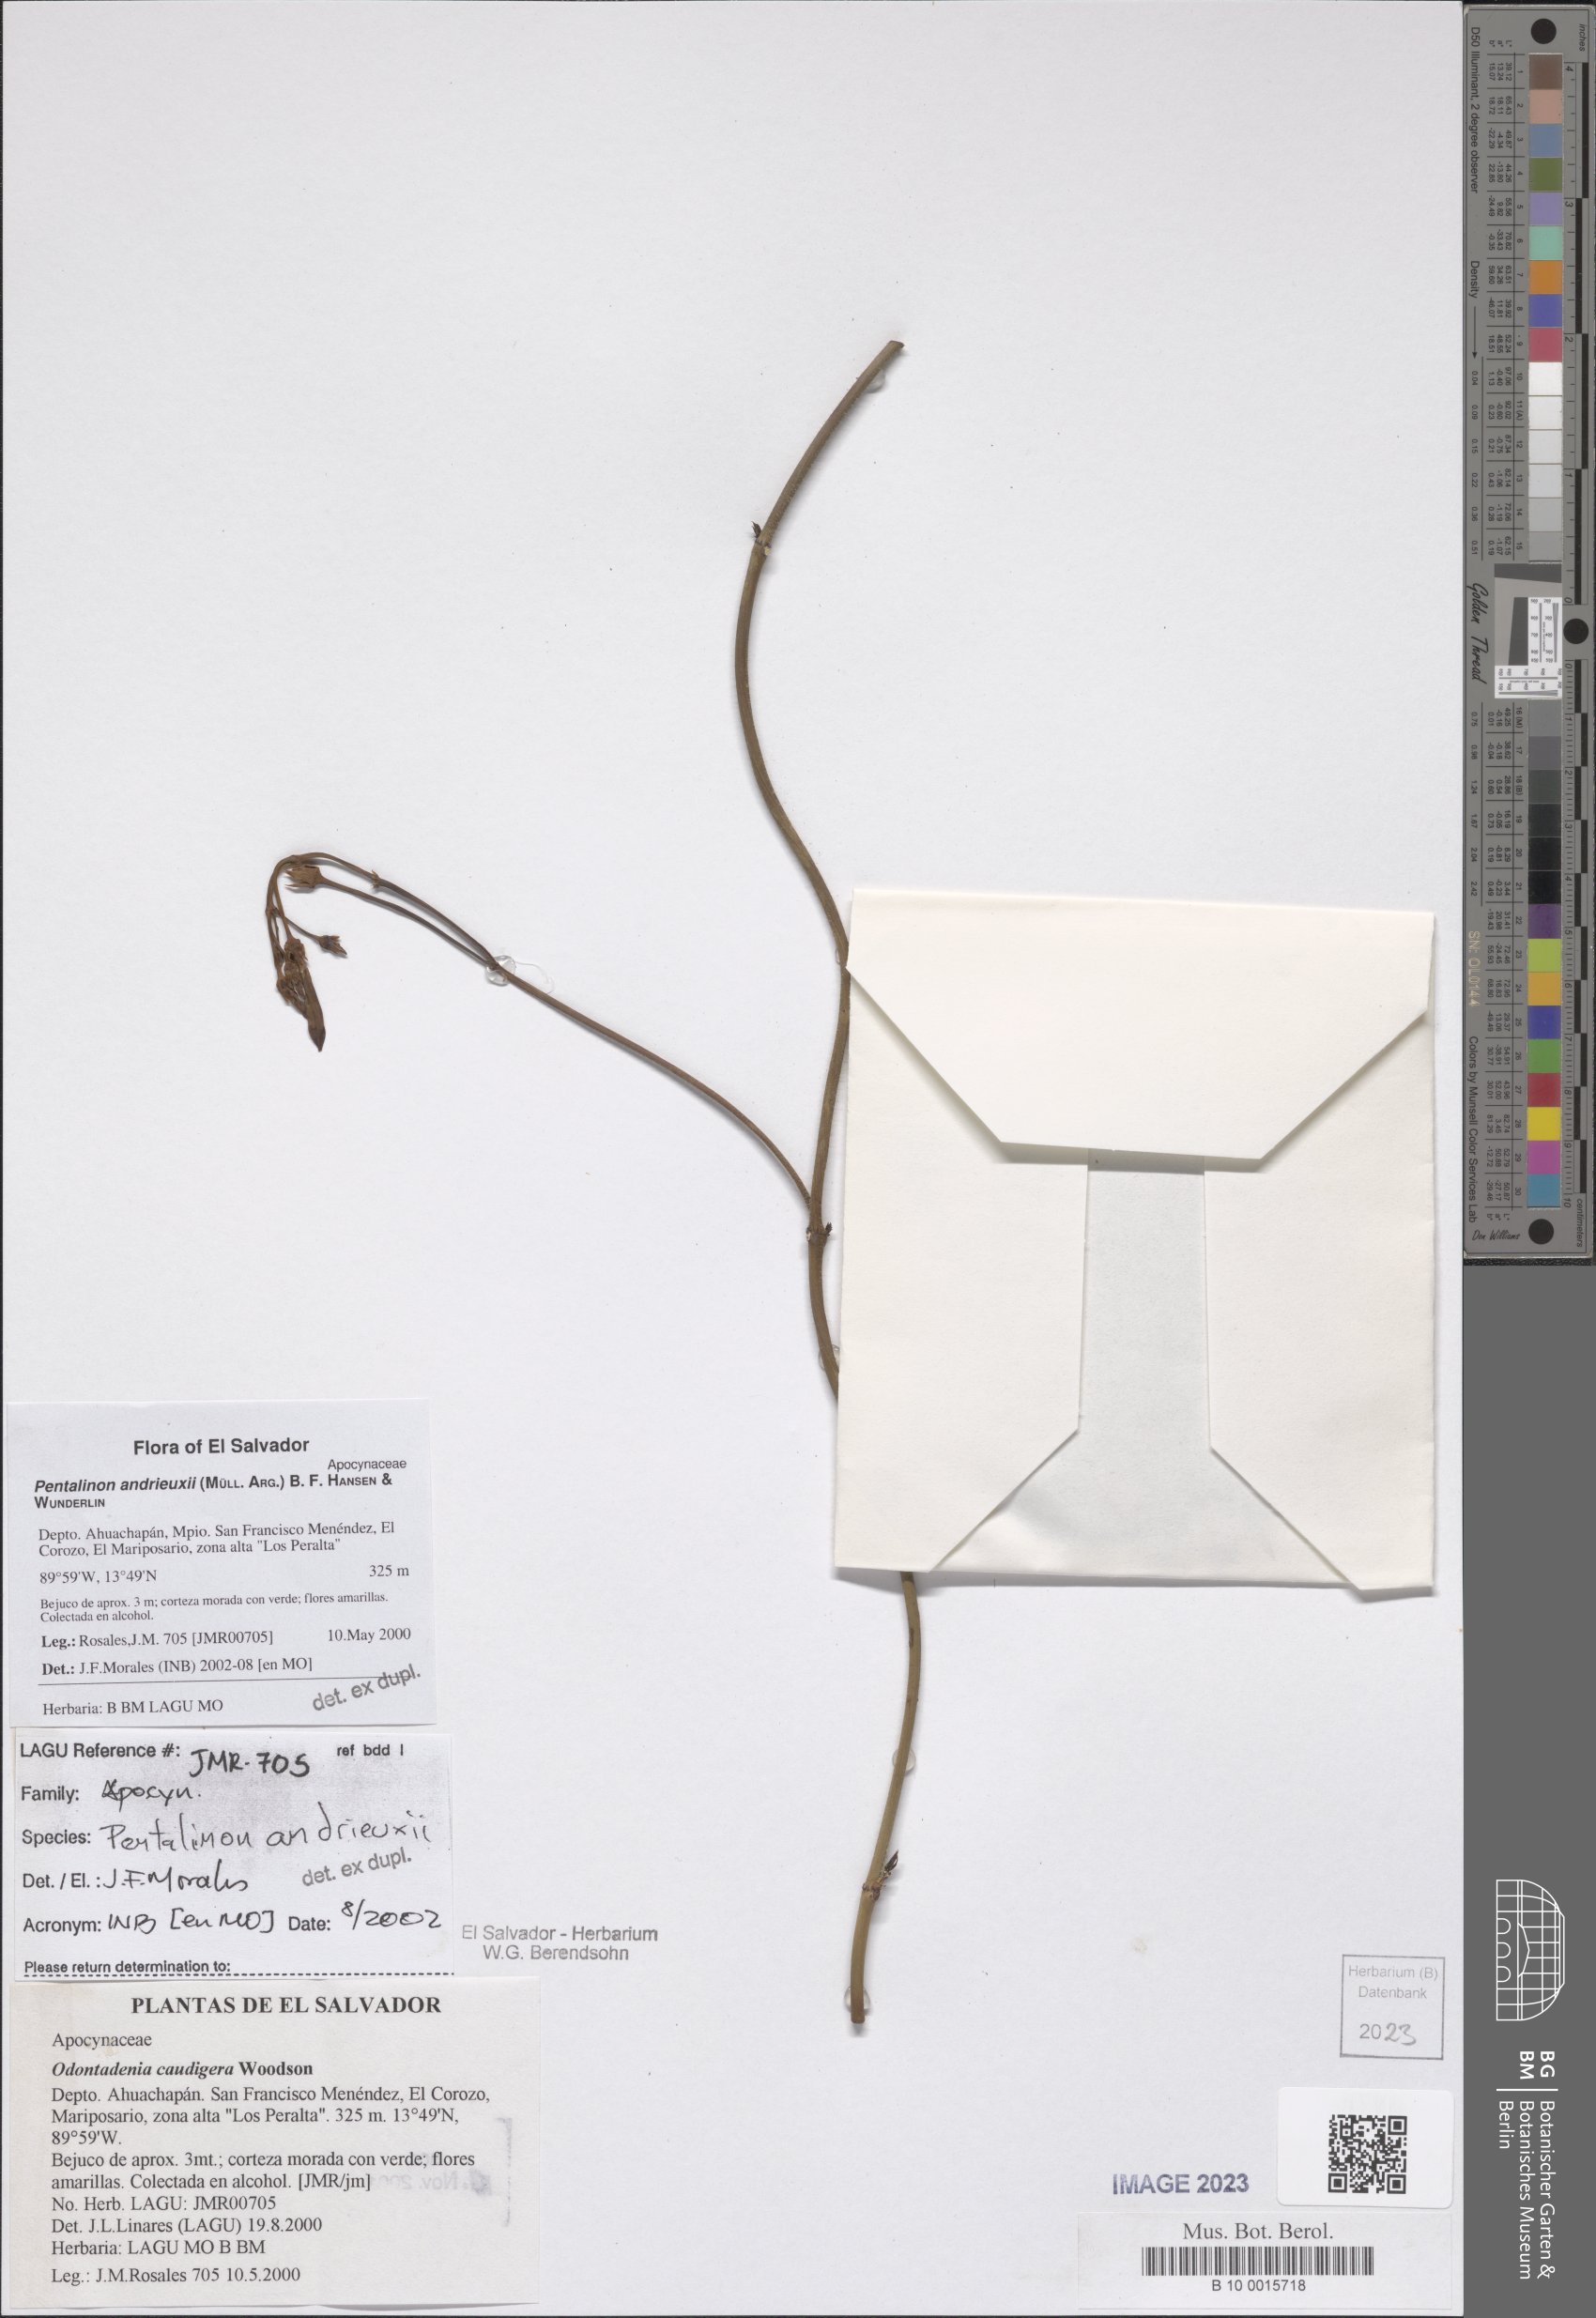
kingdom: Plantae
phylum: Tracheophyta
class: Magnoliopsida
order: Gentianales
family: Apocynaceae
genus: Pentalinon
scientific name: Pentalinon andrieuxii
